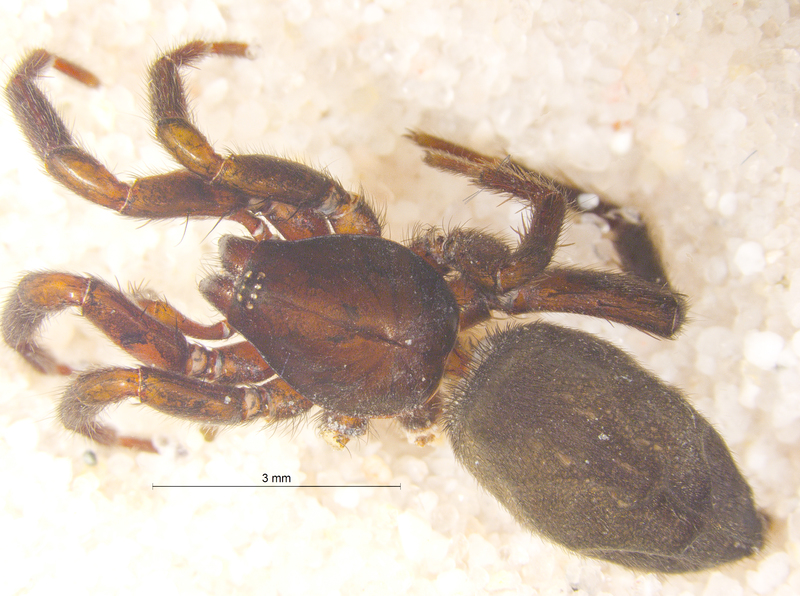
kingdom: Animalia
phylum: Arthropoda
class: Arachnida
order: Araneae
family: Gnaphosidae
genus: Zelotes
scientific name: Zelotes subterraneus
